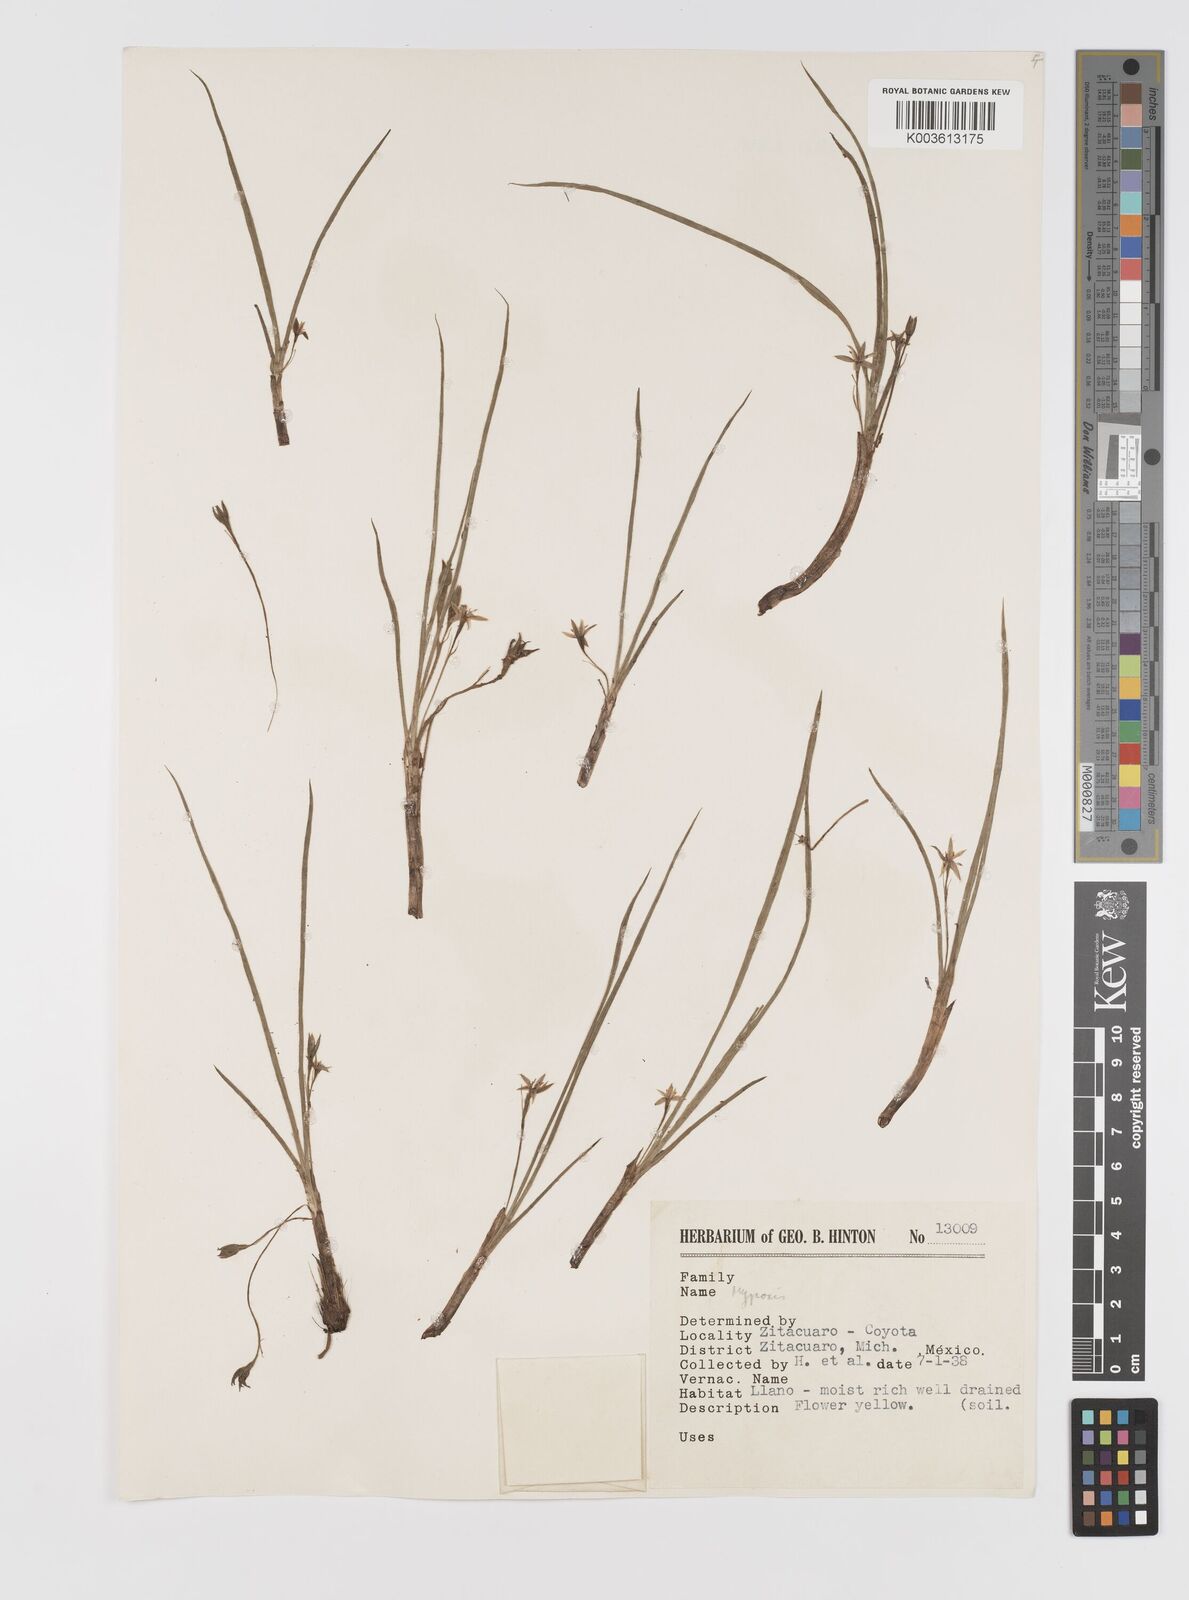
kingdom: Plantae
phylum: Tracheophyta
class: Liliopsida
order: Asparagales
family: Hypoxidaceae
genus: Hypoxis
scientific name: Hypoxis
